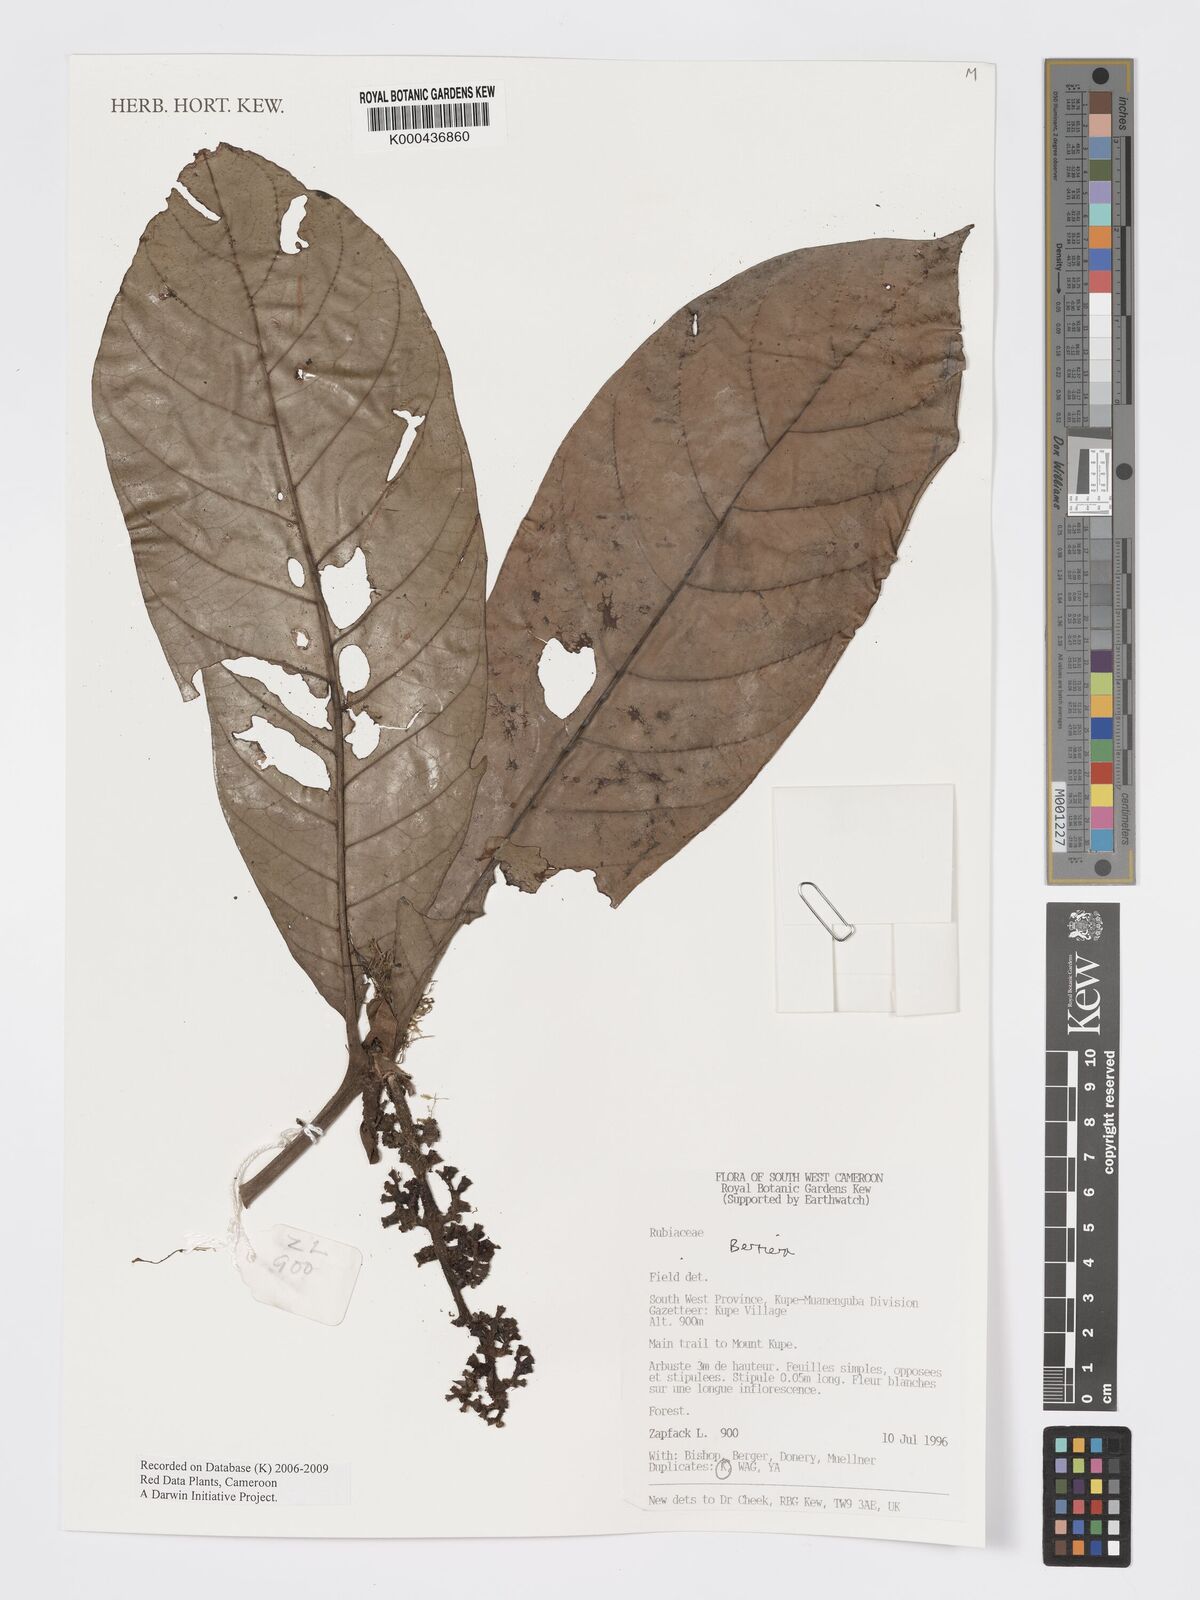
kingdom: Plantae
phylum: Tracheophyta
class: Magnoliopsida
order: Gentianales
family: Rubiaceae
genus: Bertiera
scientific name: Bertiera
